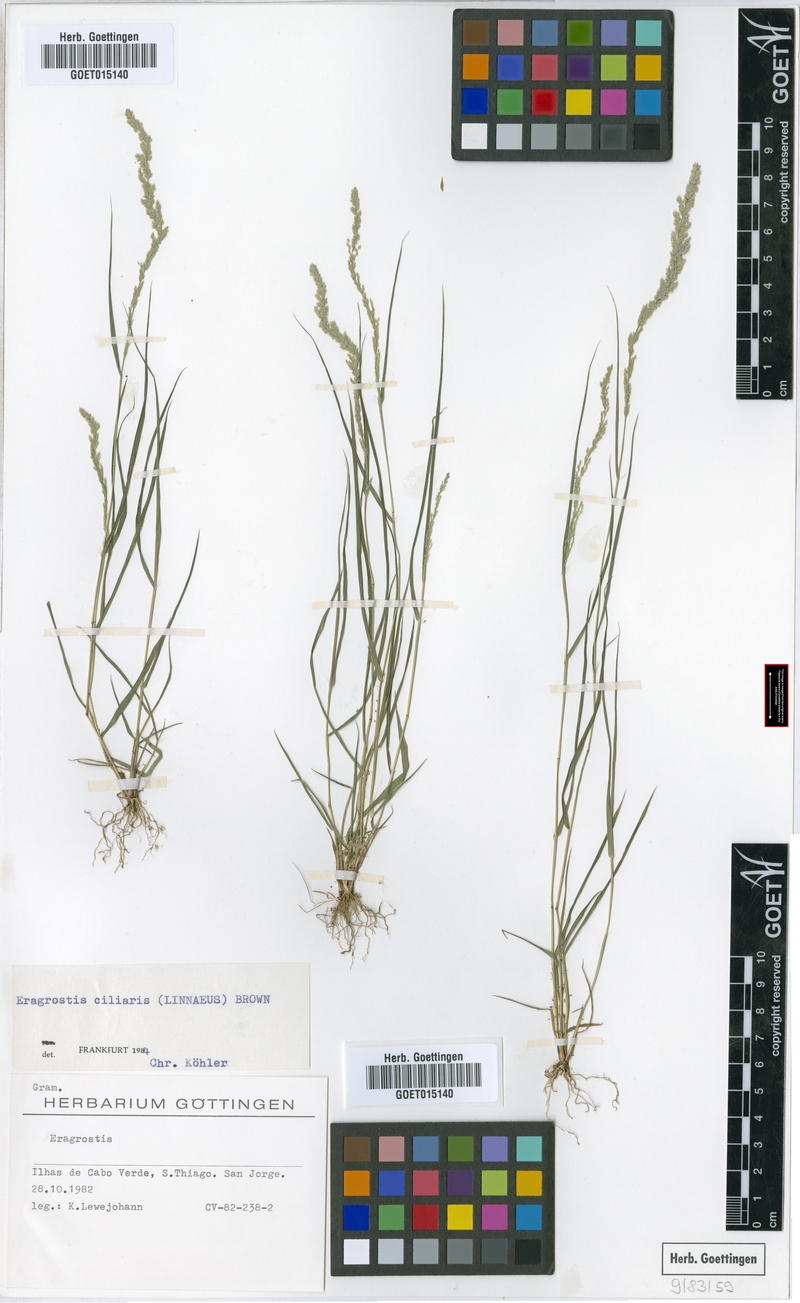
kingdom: Plantae
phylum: Tracheophyta
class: Liliopsida
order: Poales
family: Poaceae
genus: Eragrostis
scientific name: Eragrostis ciliaris
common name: Gophertail lovegrass
